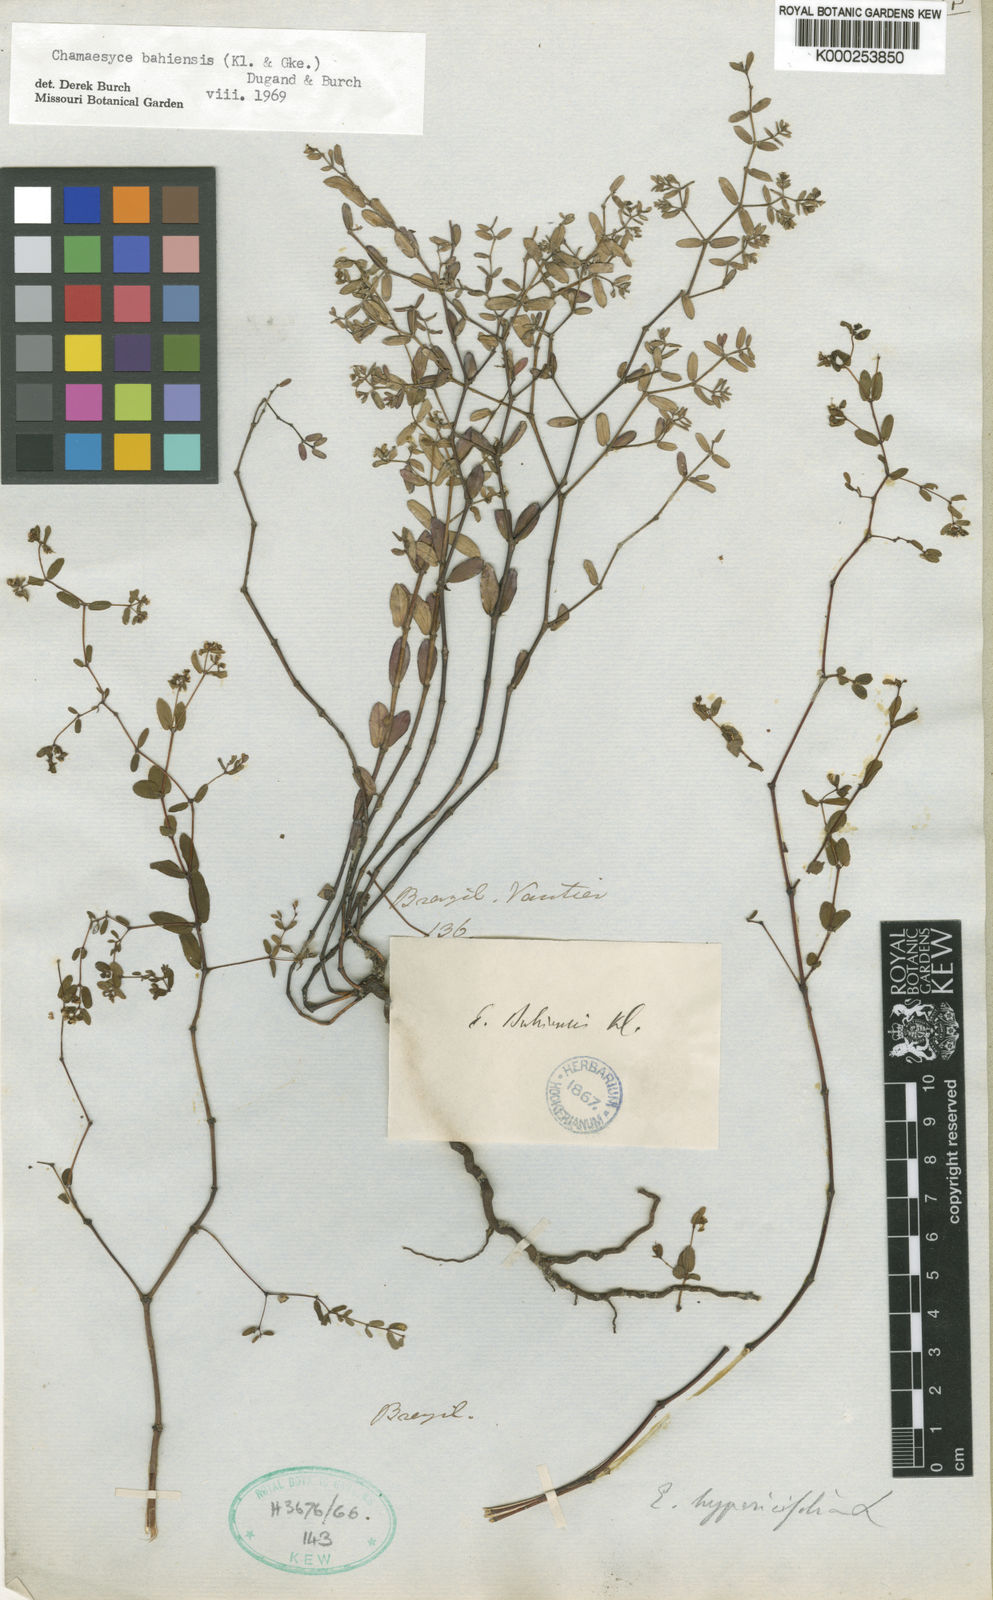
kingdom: Plantae
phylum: Tracheophyta
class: Magnoliopsida
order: Malpighiales
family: Euphorbiaceae
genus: Euphorbia
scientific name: Euphorbia bahiensis
